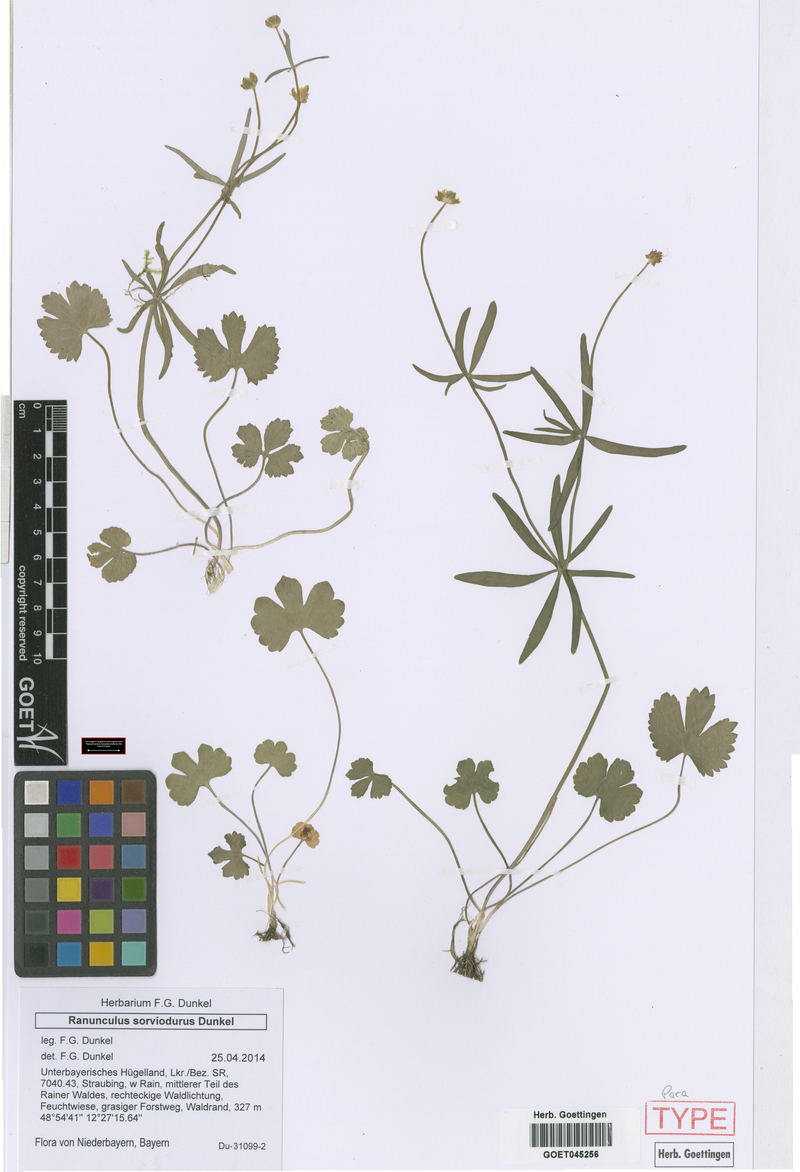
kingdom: Plantae
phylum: Tracheophyta
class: Magnoliopsida
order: Ranunculales
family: Ranunculaceae
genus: Ranunculus
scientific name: Ranunculus sorviodurus
